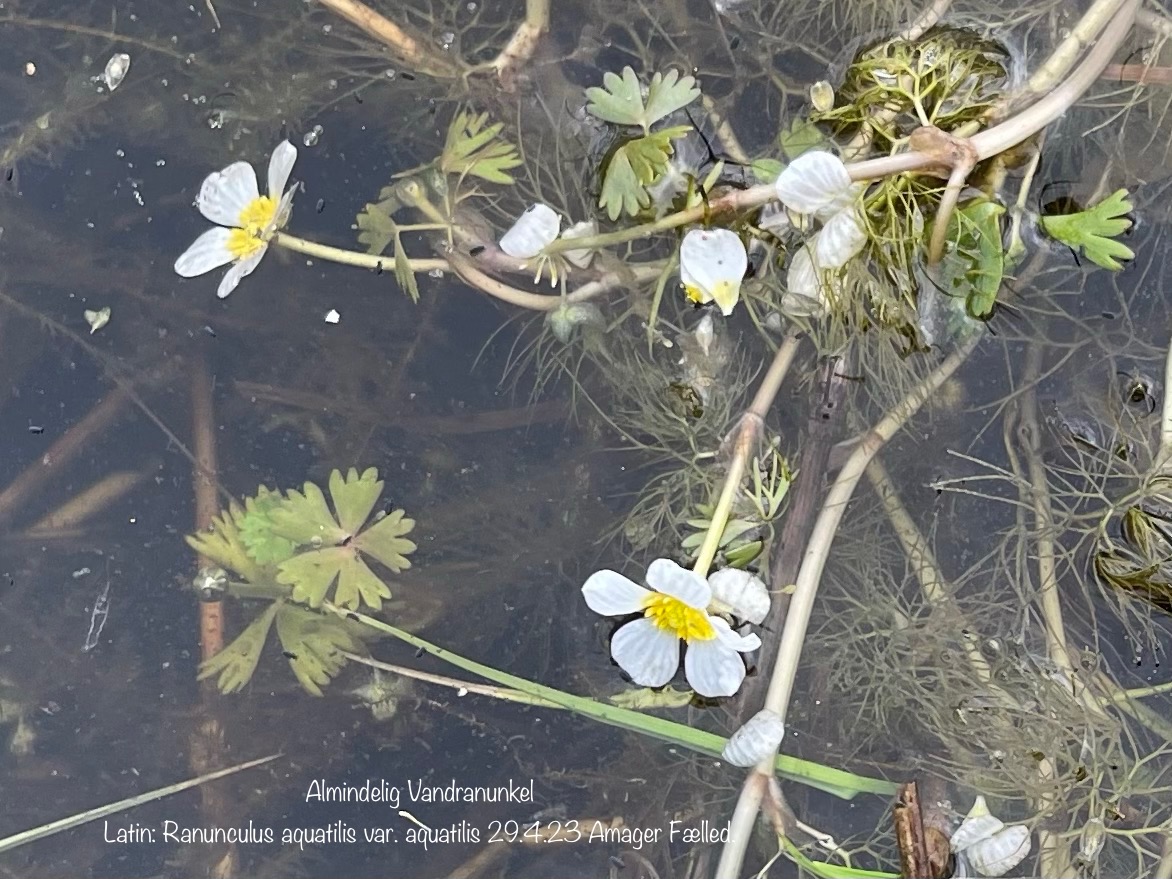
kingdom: Plantae
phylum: Tracheophyta
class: Magnoliopsida
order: Ranunculales
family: Ranunculaceae
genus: Ranunculus
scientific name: Ranunculus aquatilis
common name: Almindelig vandranunkel
